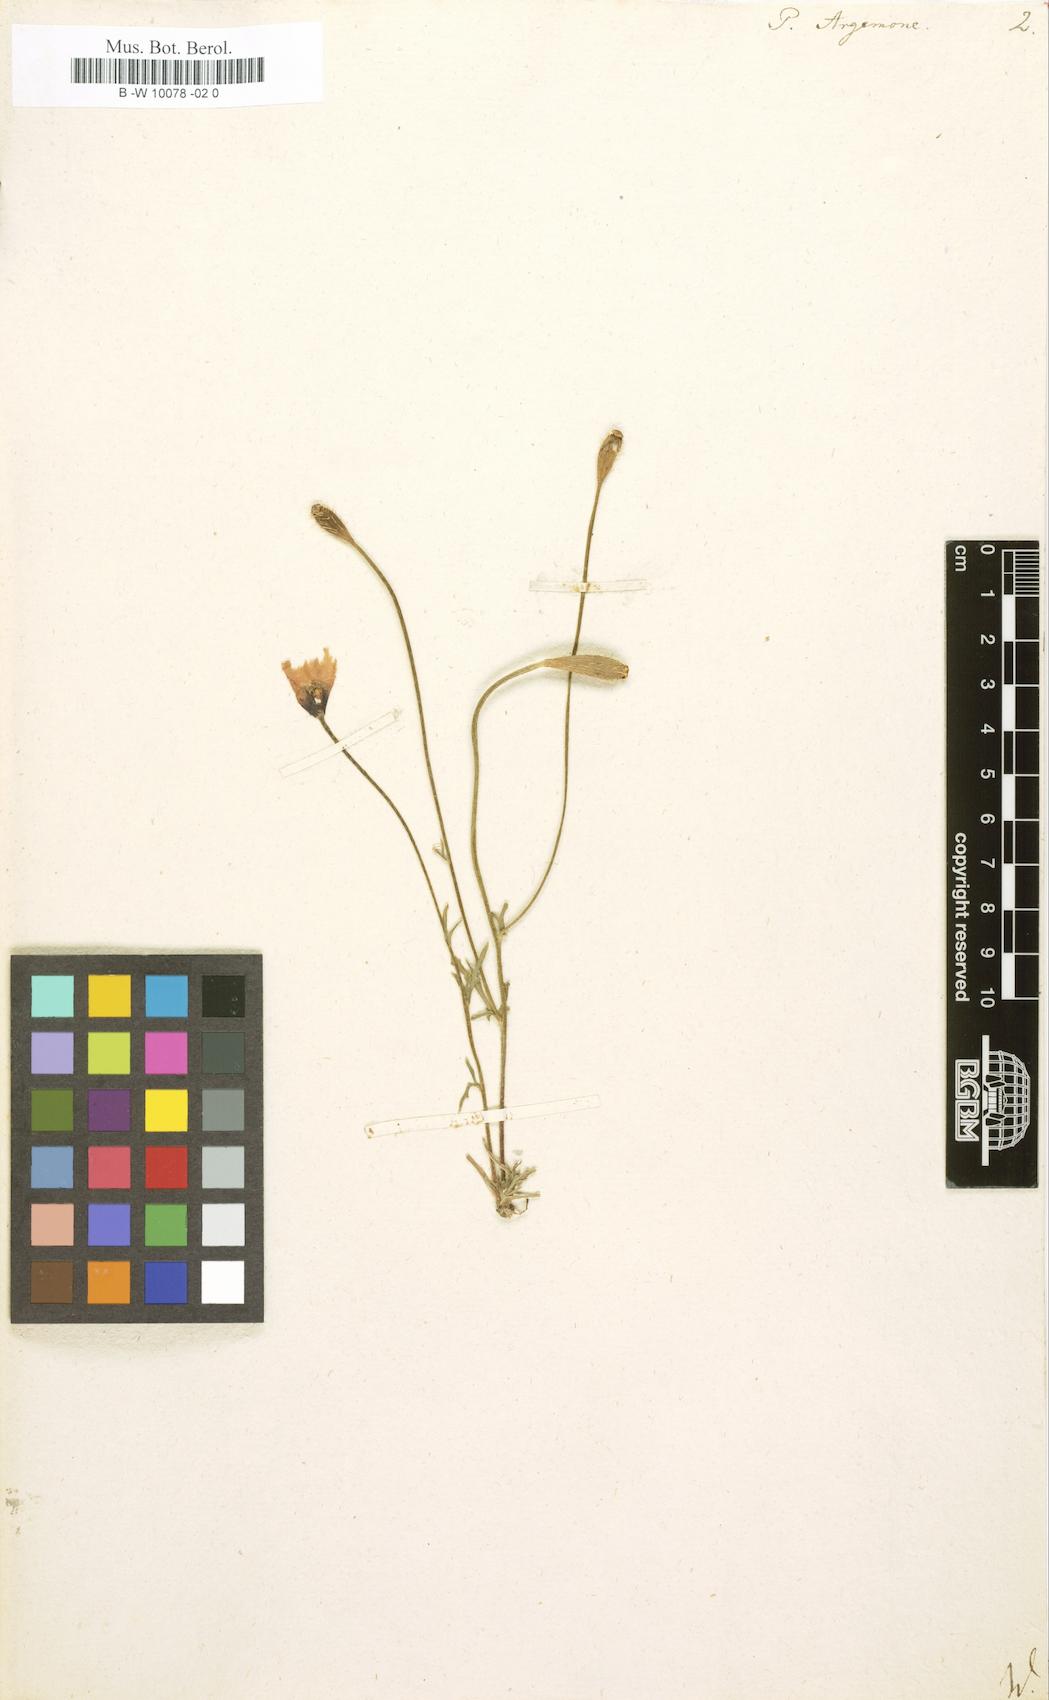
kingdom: Plantae
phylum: Tracheophyta
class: Magnoliopsida
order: Ranunculales
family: Papaveraceae
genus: Roemeria
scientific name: Roemeria argemone
